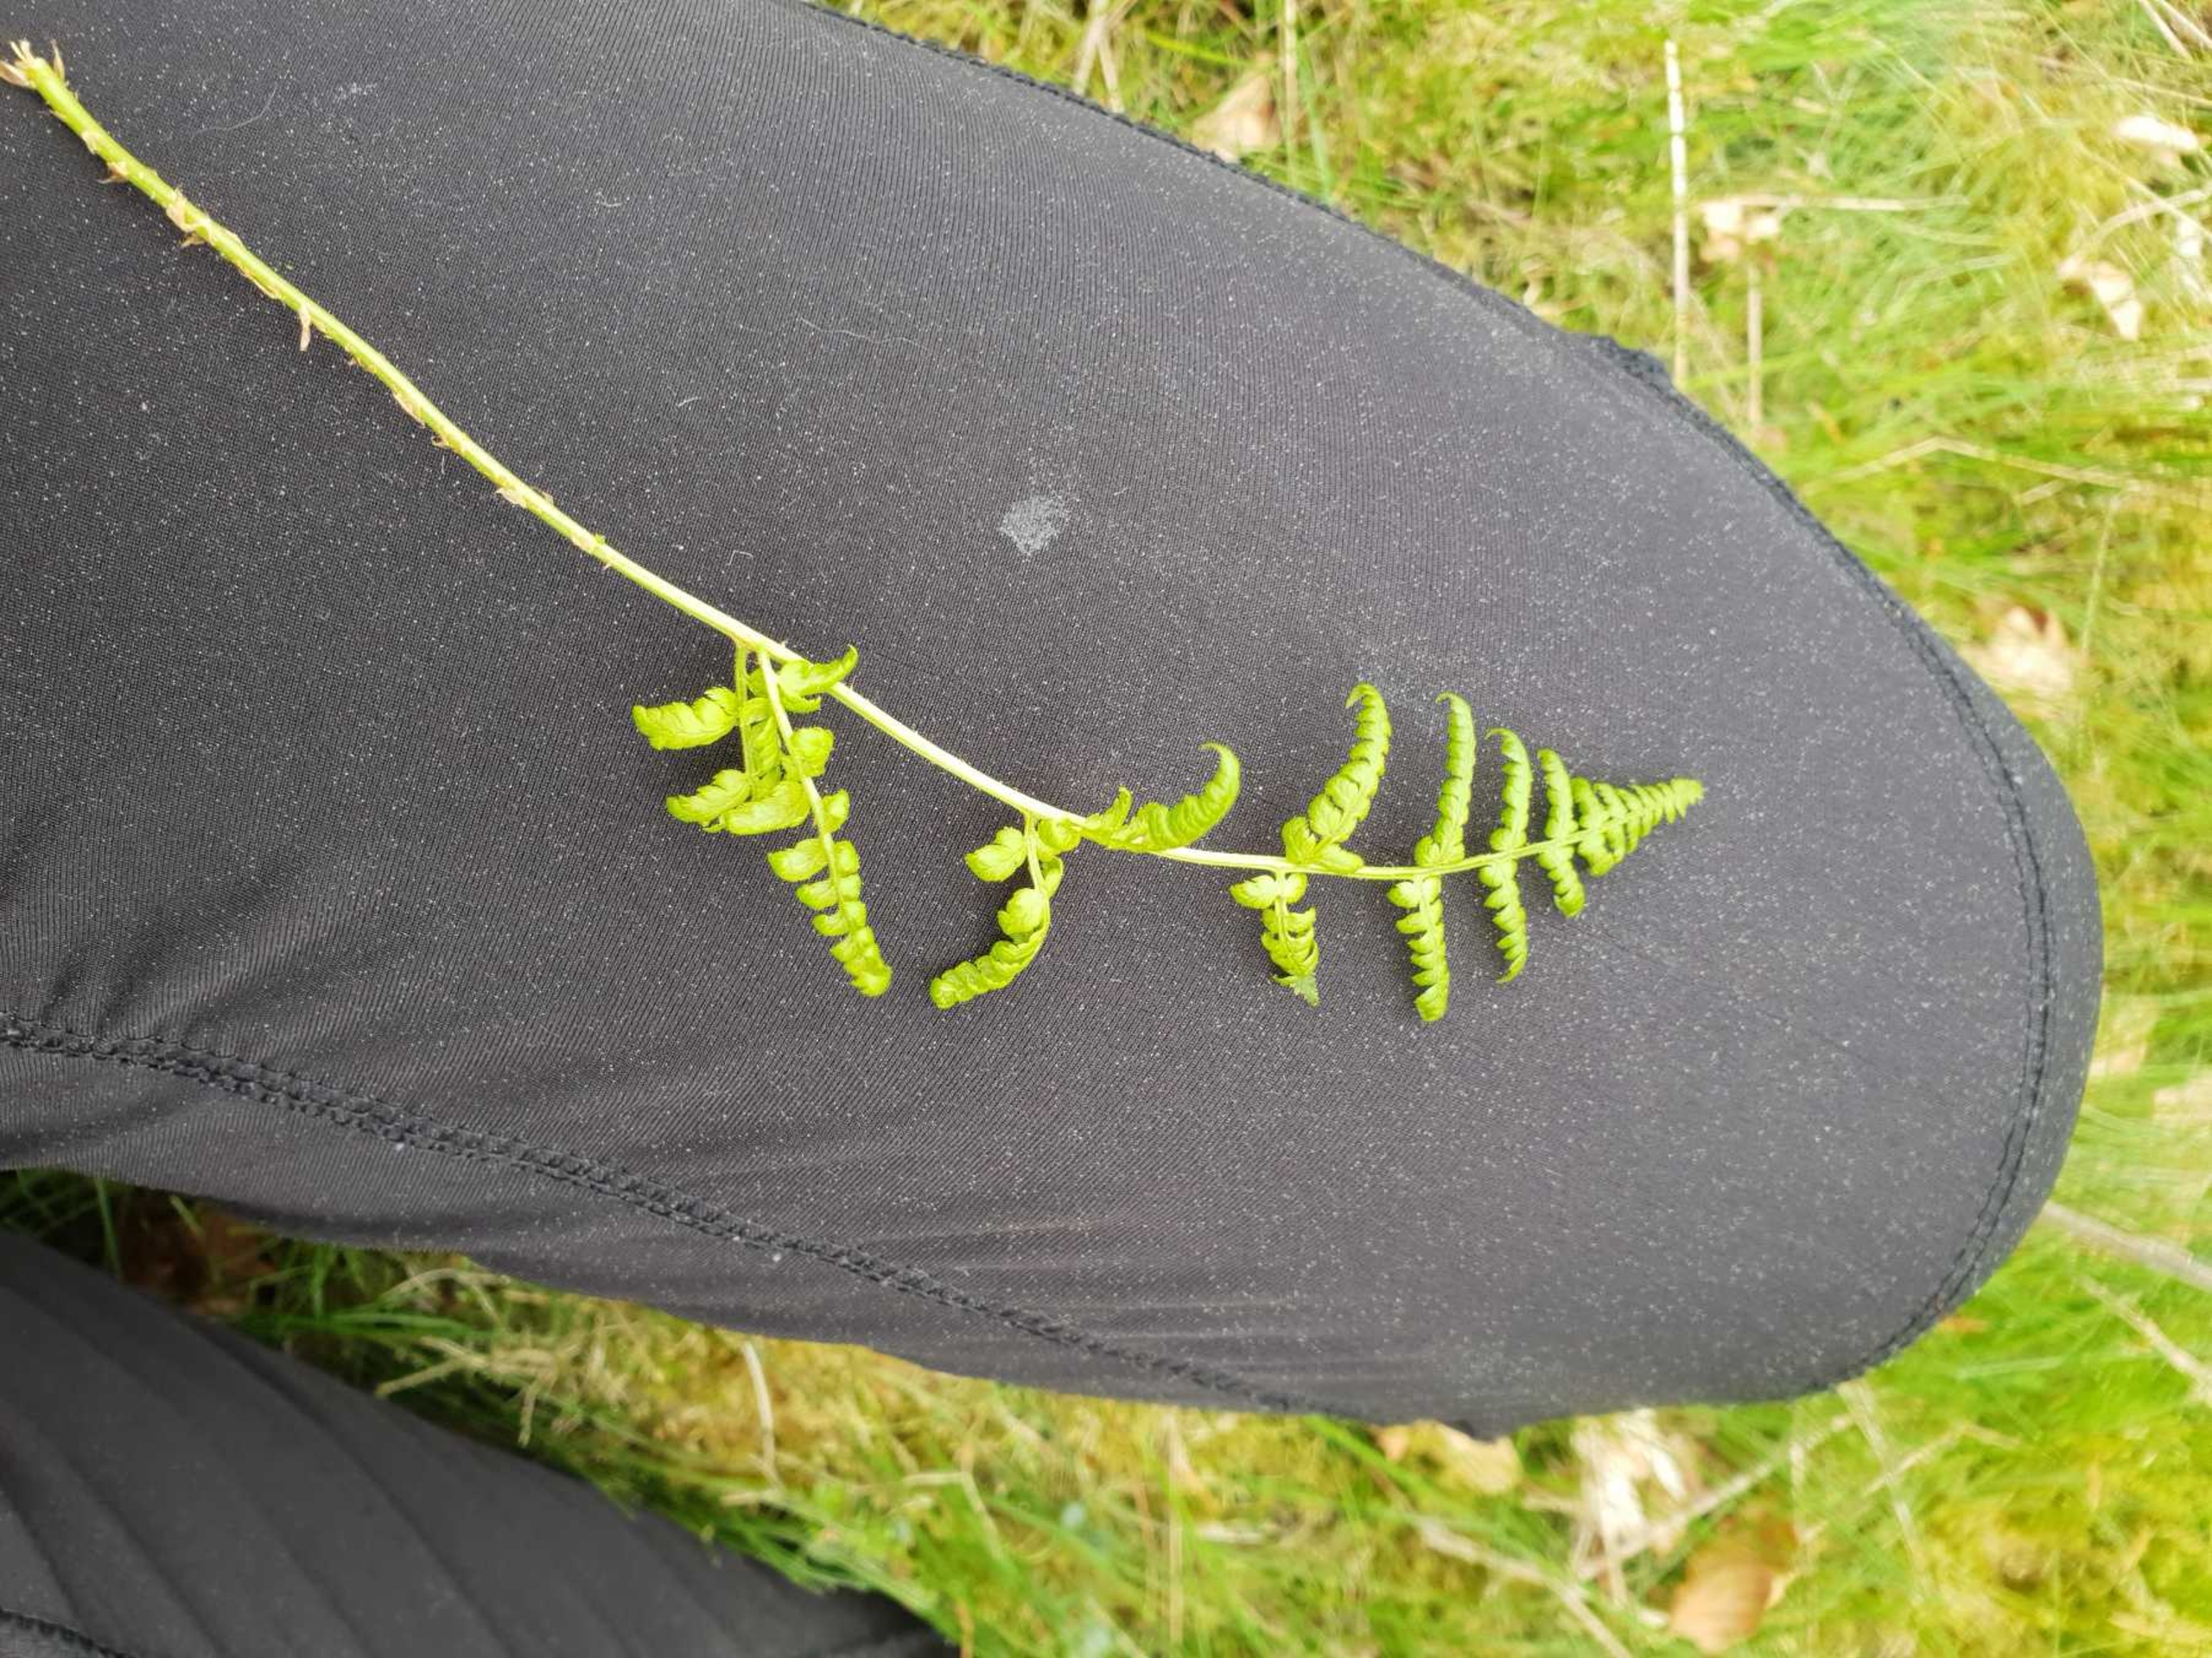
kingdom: Plantae
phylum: Tracheophyta
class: Polypodiopsida
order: Polypodiales
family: Dryopteridaceae
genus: Dryopteris
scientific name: Dryopteris carthusiana
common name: Smalbladet mangeløv
